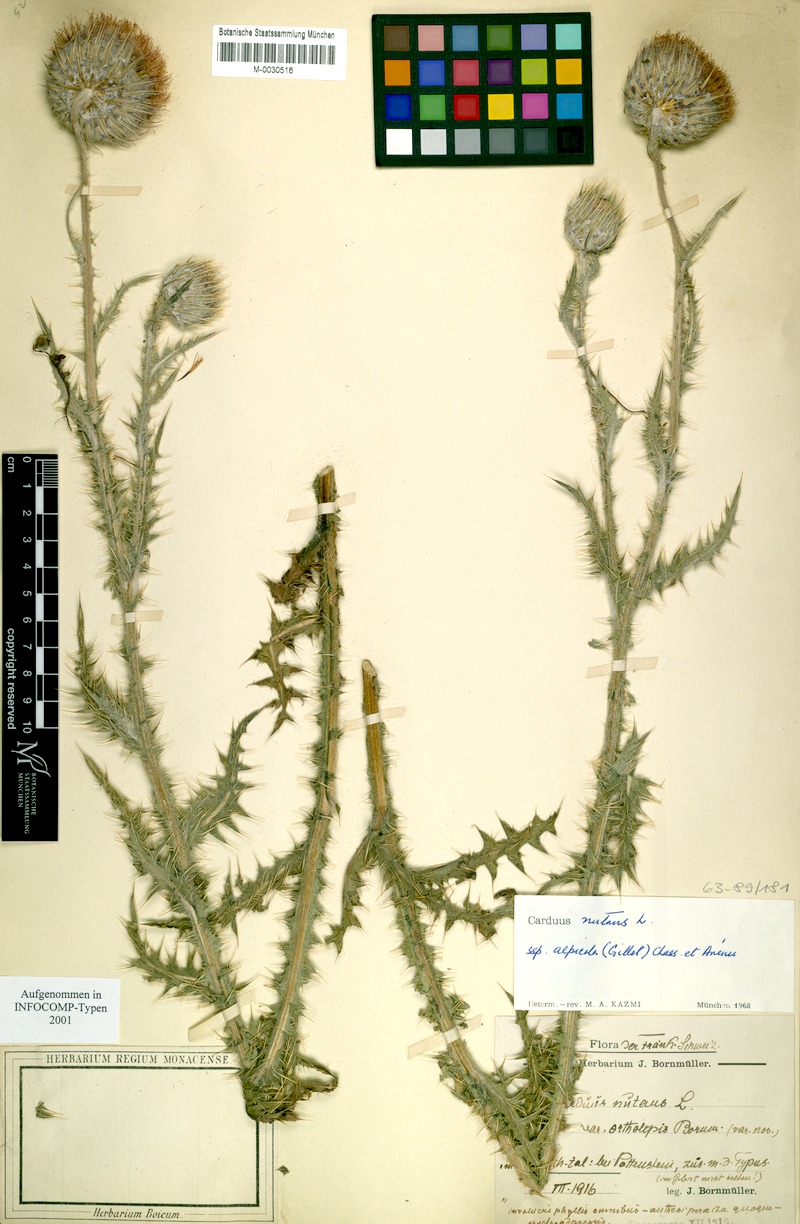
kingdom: Plantae
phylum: Tracheophyta
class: Magnoliopsida
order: Asterales
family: Asteraceae
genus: Carduus
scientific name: Carduus nutans
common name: Musk thistle
